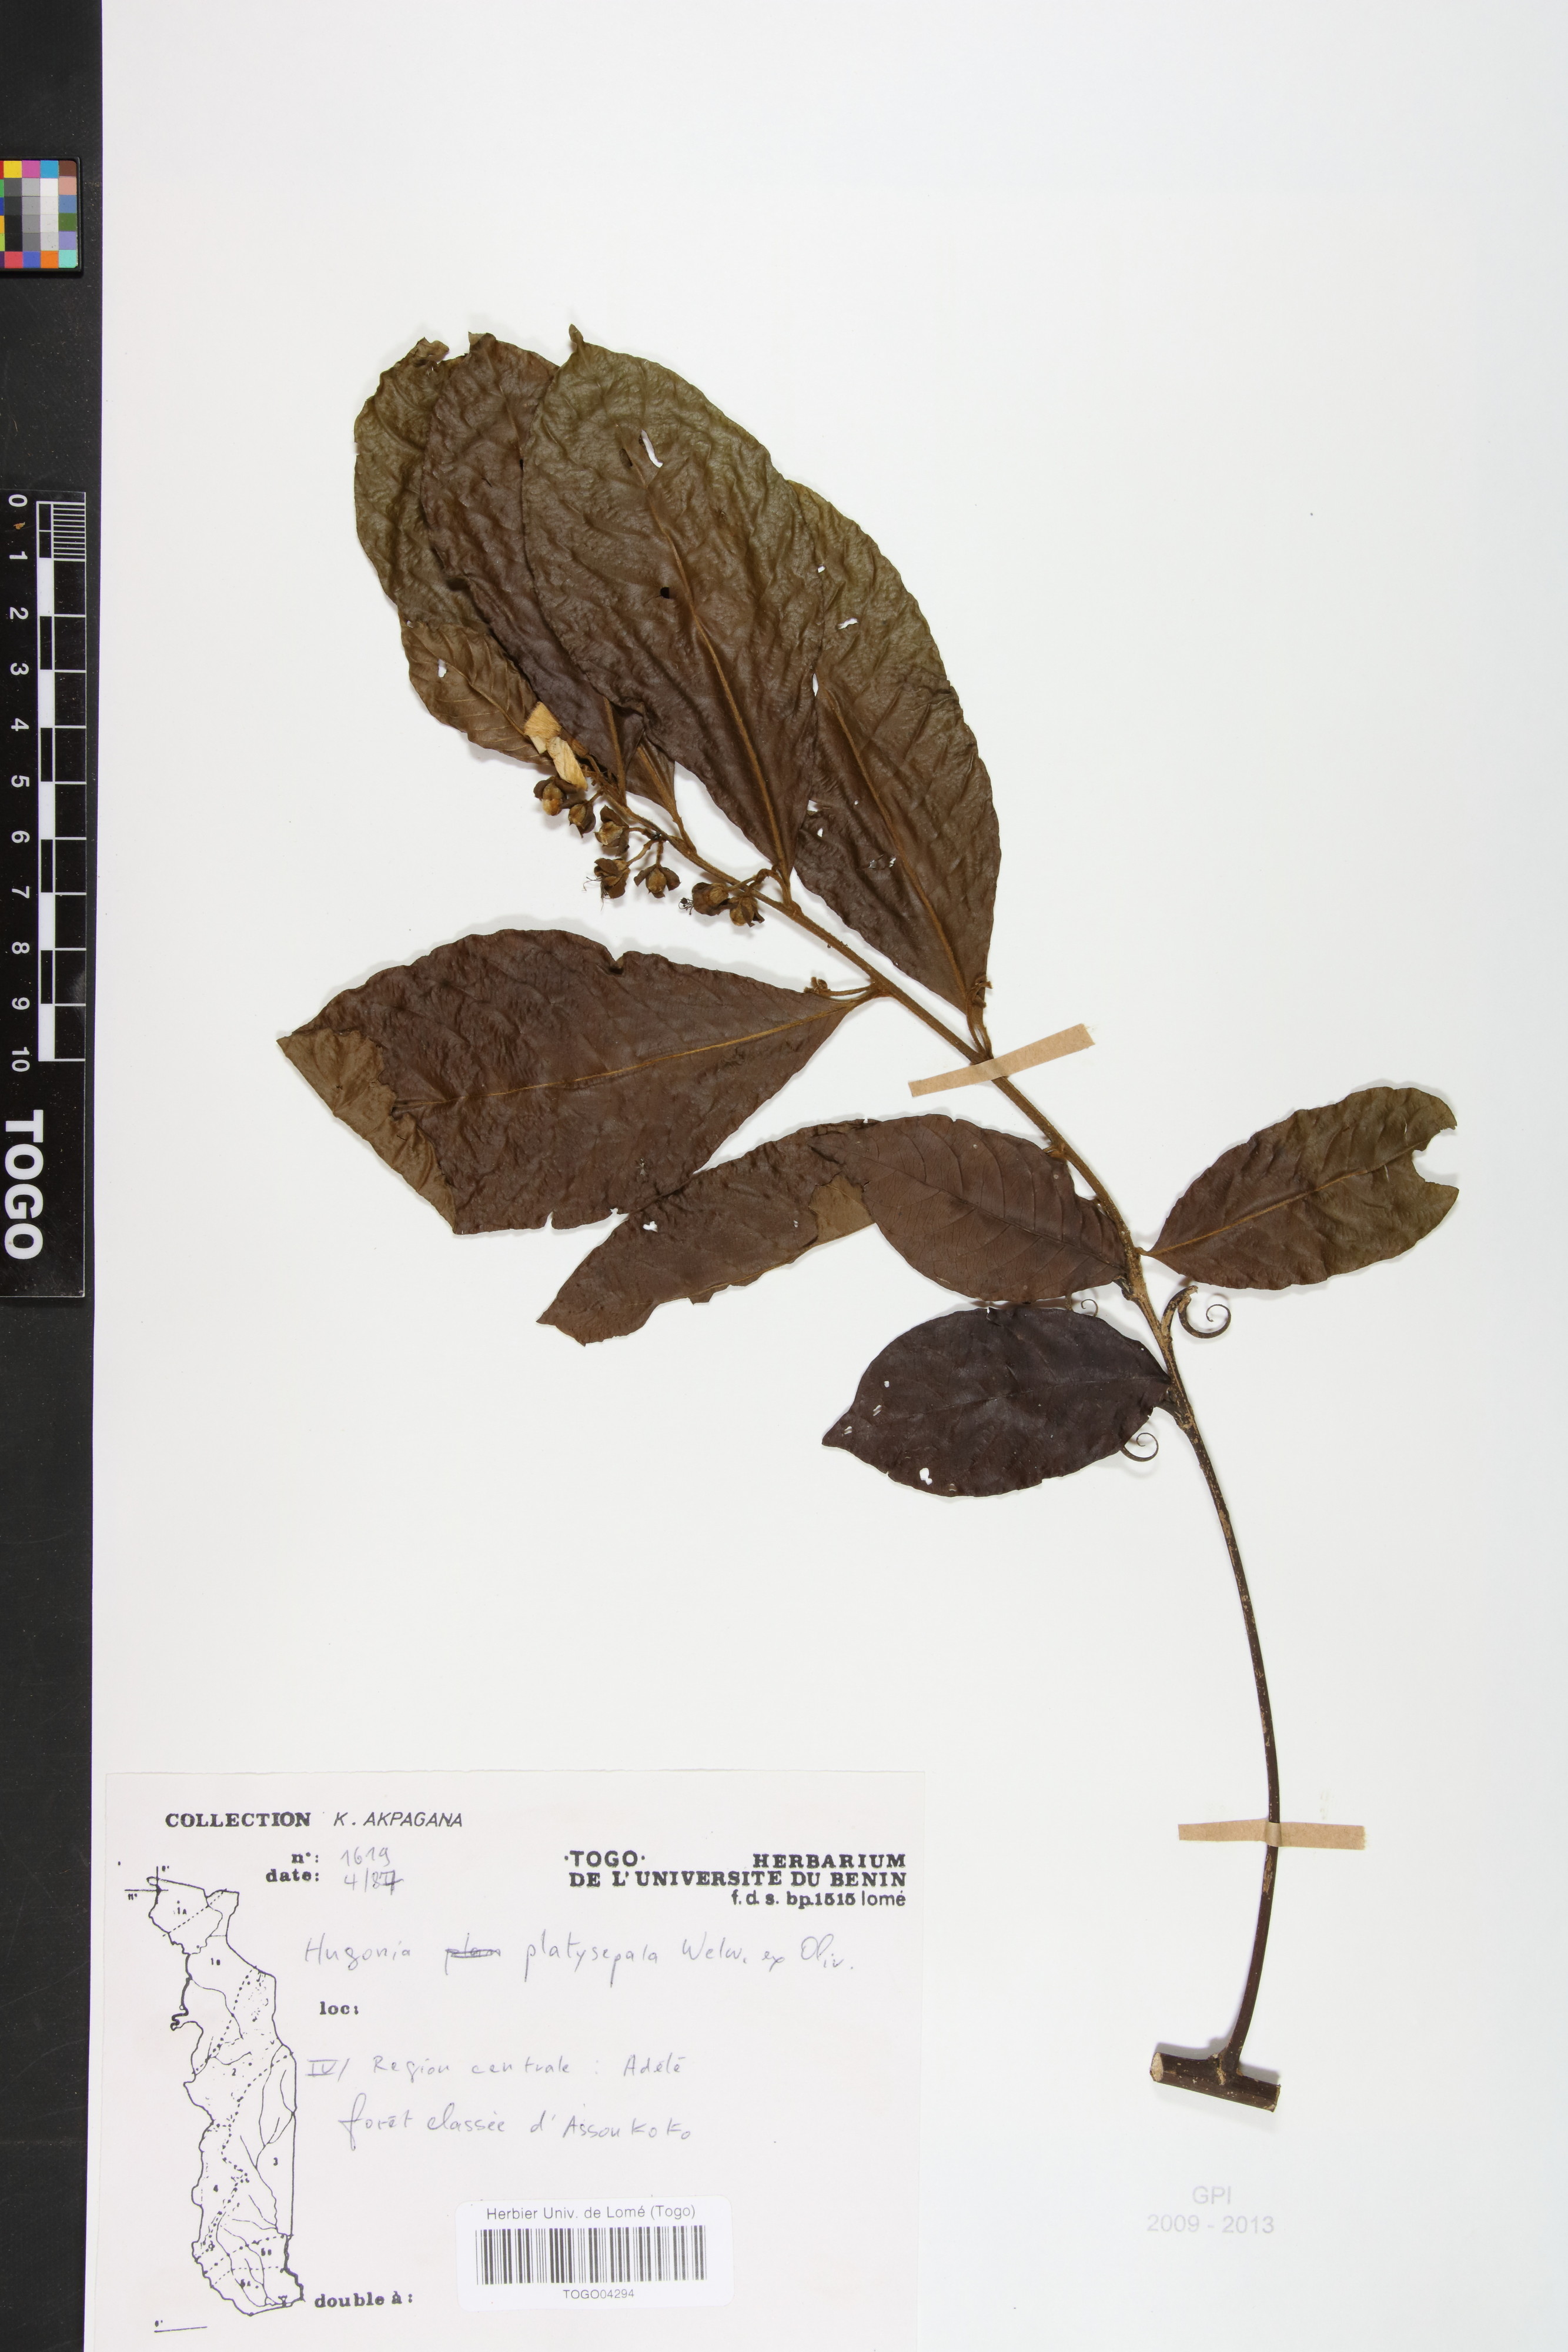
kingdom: Plantae
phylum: Tracheophyta
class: Magnoliopsida
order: Malpighiales
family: Linaceae
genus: Hugonia
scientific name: Hugonia platysepala
